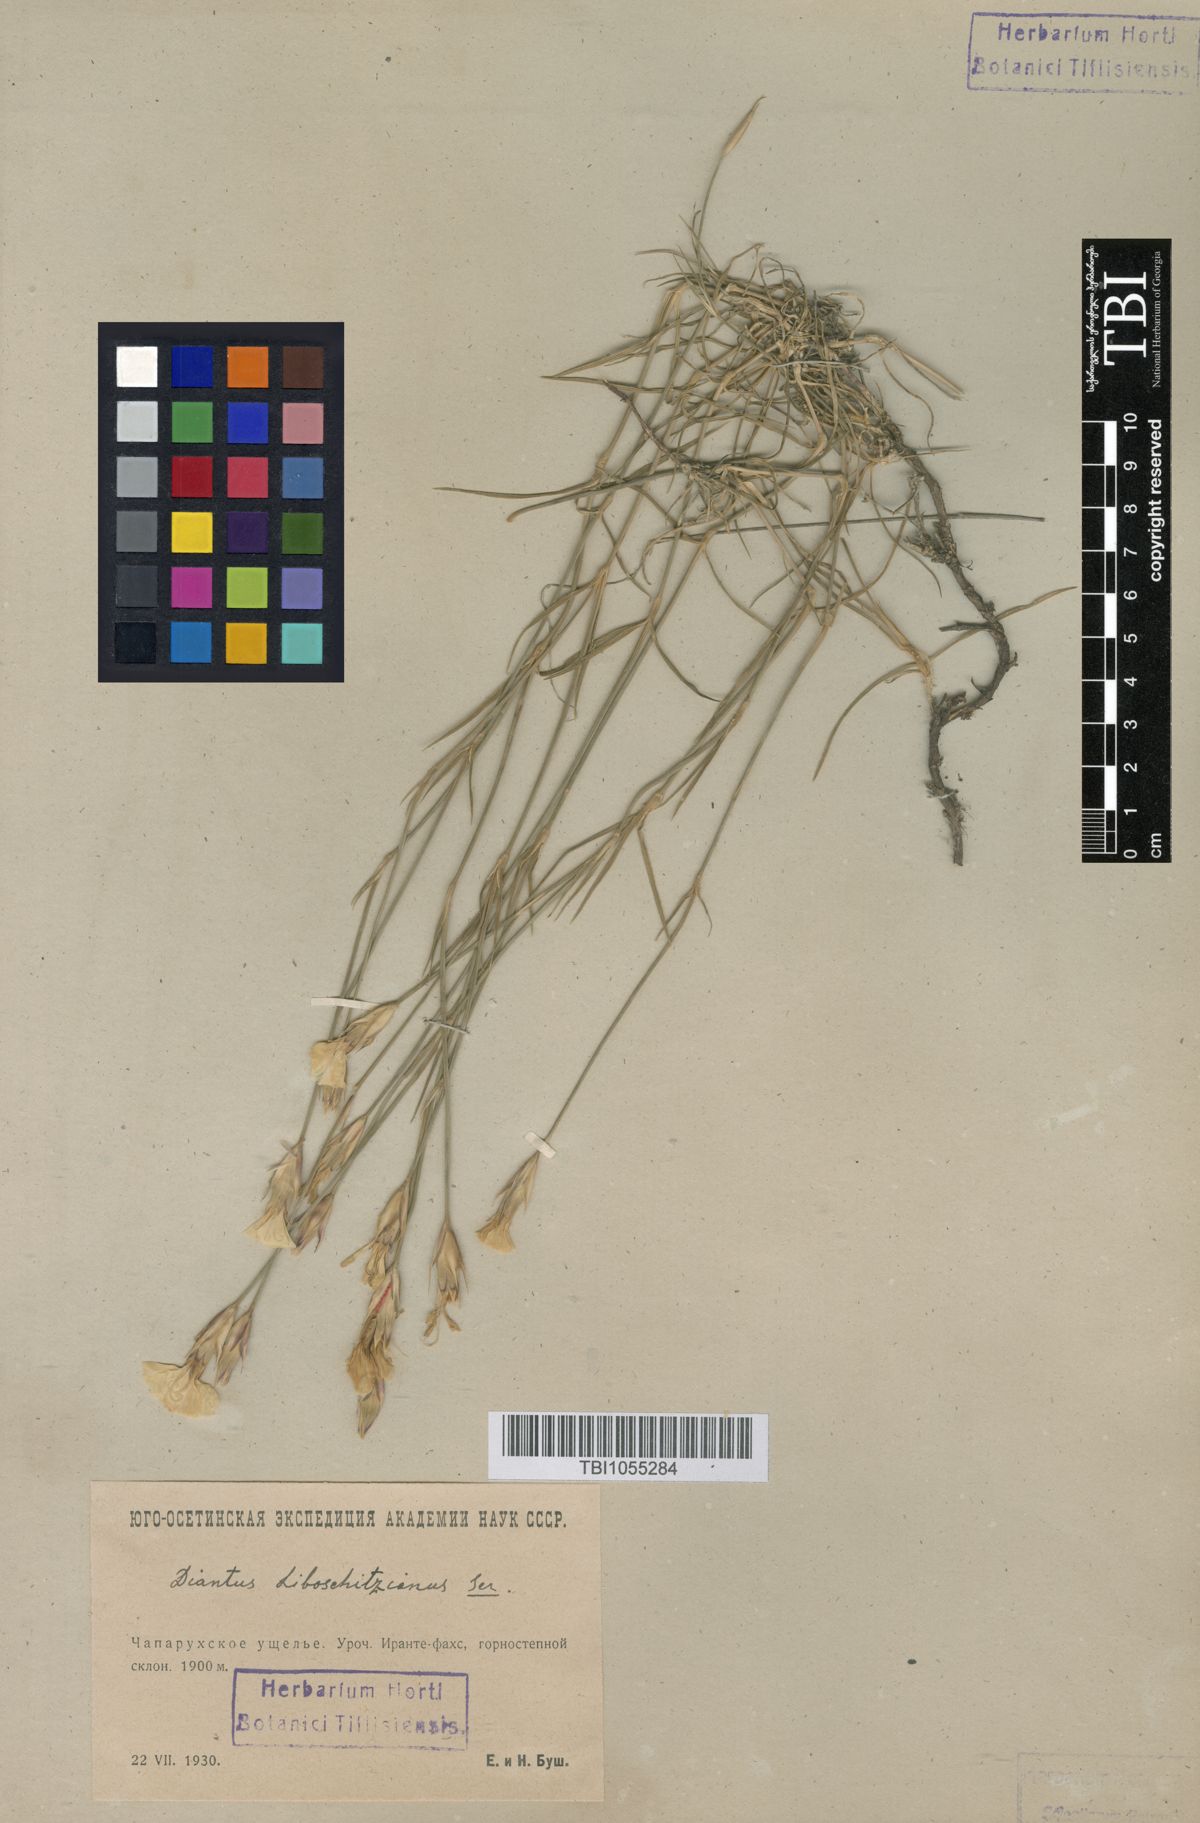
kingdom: Plantae
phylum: Tracheophyta
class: Magnoliopsida
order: Caryophyllales
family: Caryophyllaceae
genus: Dianthus
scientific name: Dianthus cretaceus
